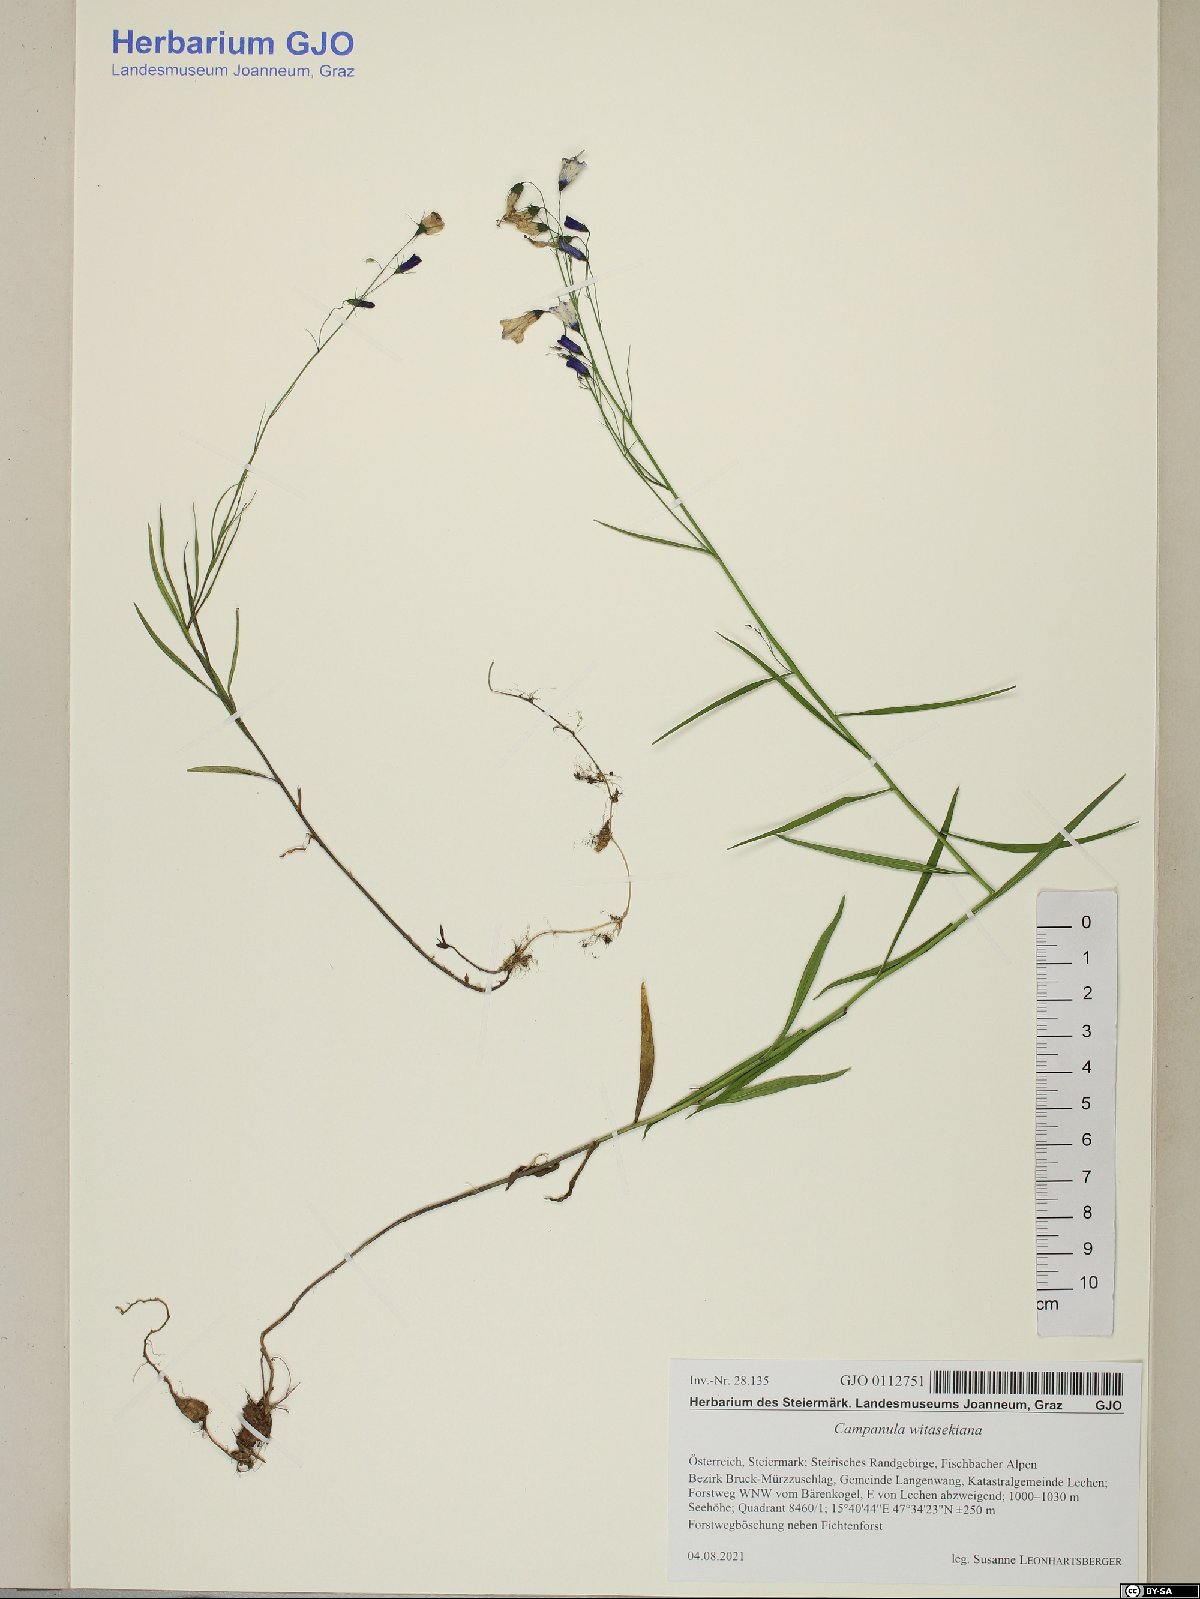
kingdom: Plantae
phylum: Tracheophyta
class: Magnoliopsida
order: Asterales
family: Campanulaceae
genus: Campanula
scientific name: Campanula witasekiana
